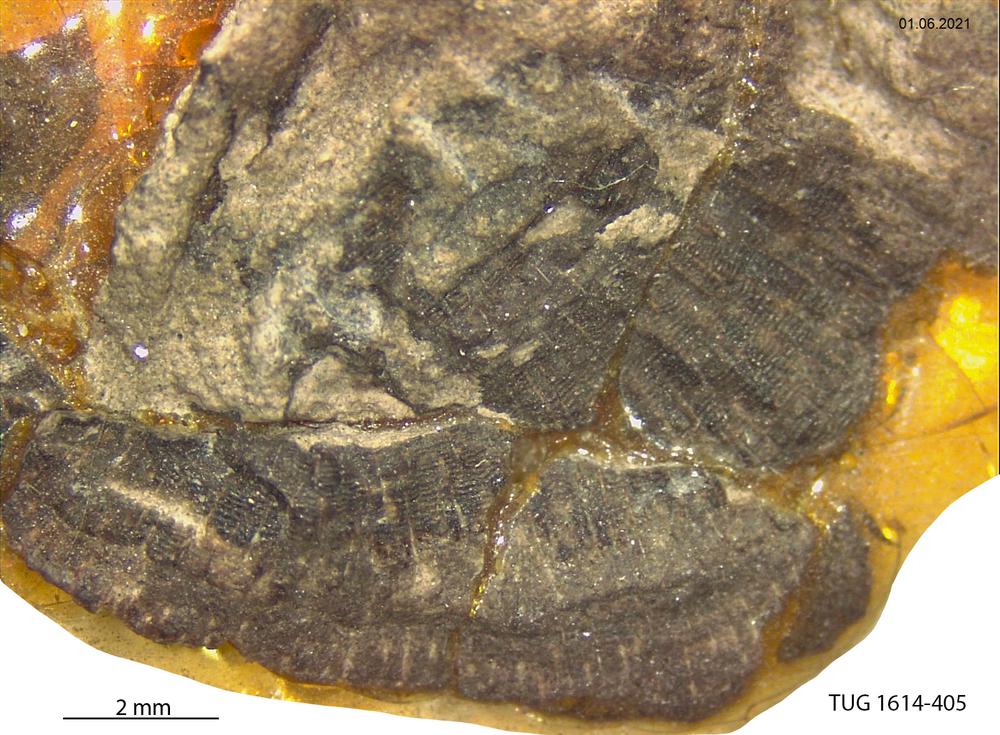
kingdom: Animalia
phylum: Mollusca
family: Scenellidae
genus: Scenella
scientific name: Scenella
